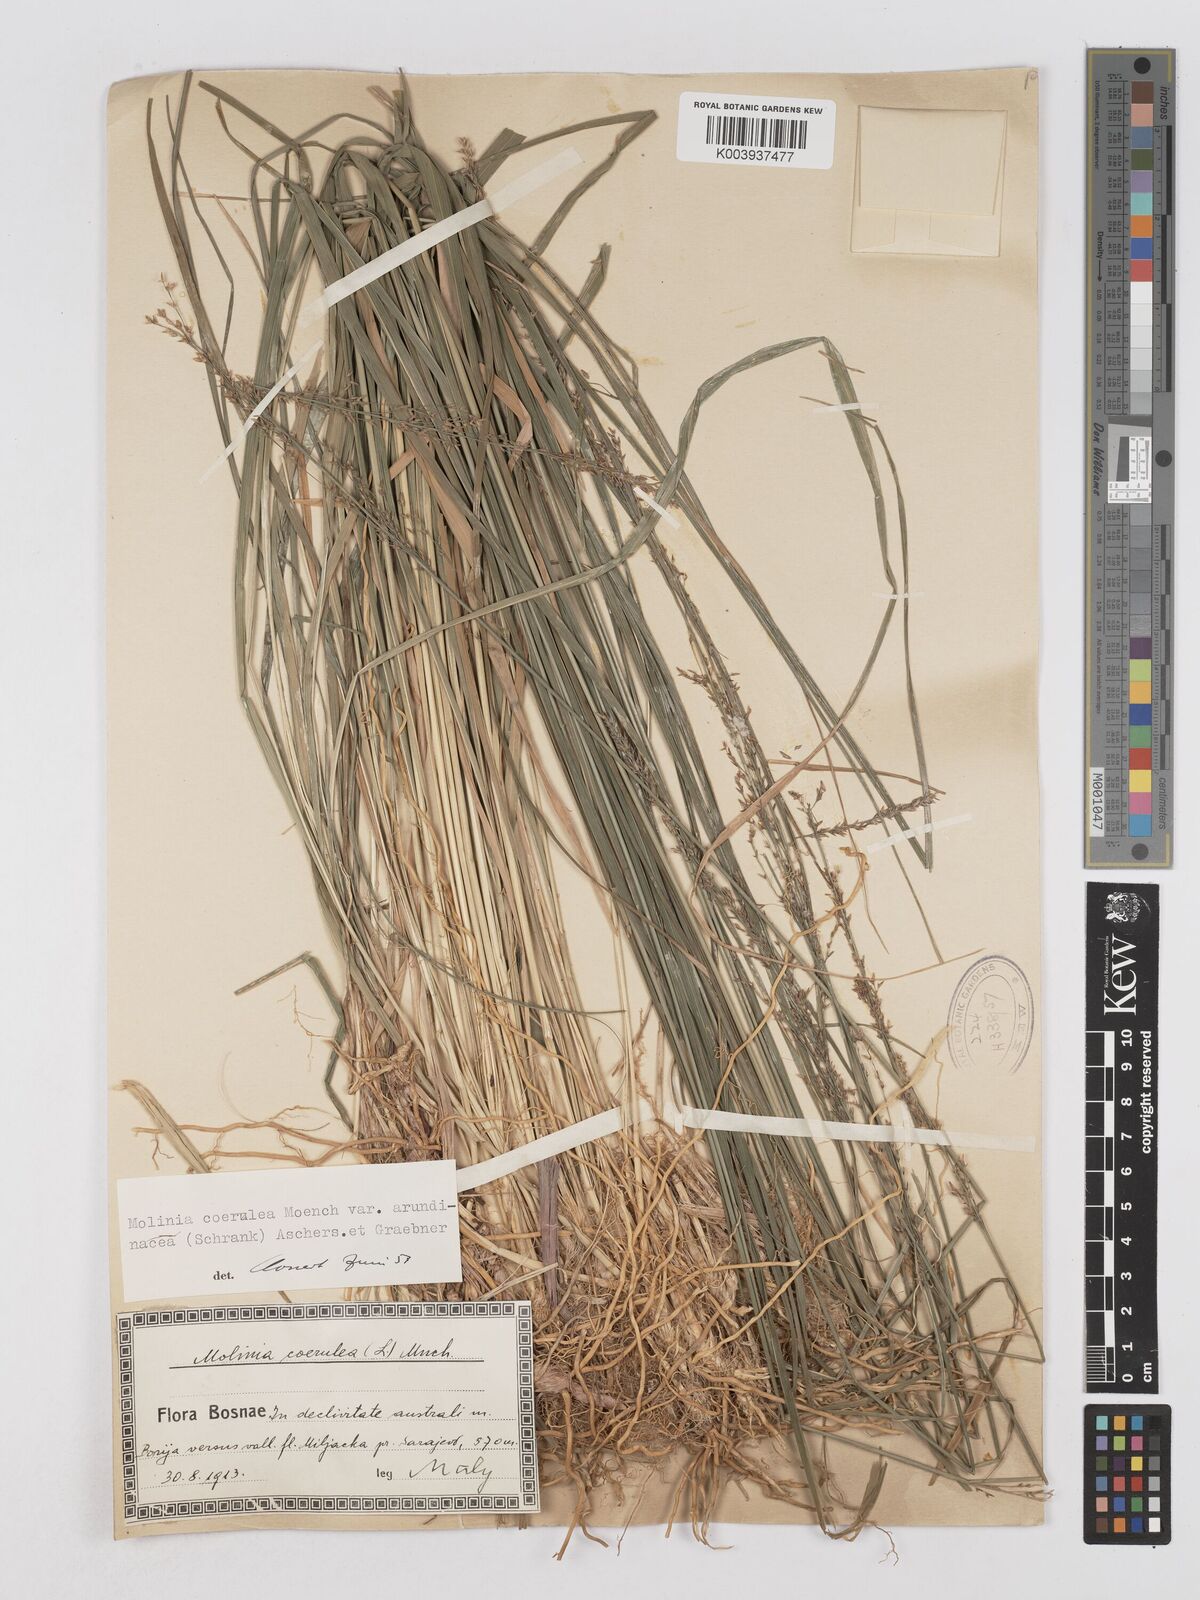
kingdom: Plantae
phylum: Tracheophyta
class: Liliopsida
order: Poales
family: Poaceae
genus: Molinia
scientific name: Molinia caerulea
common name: Purple moor-grass
